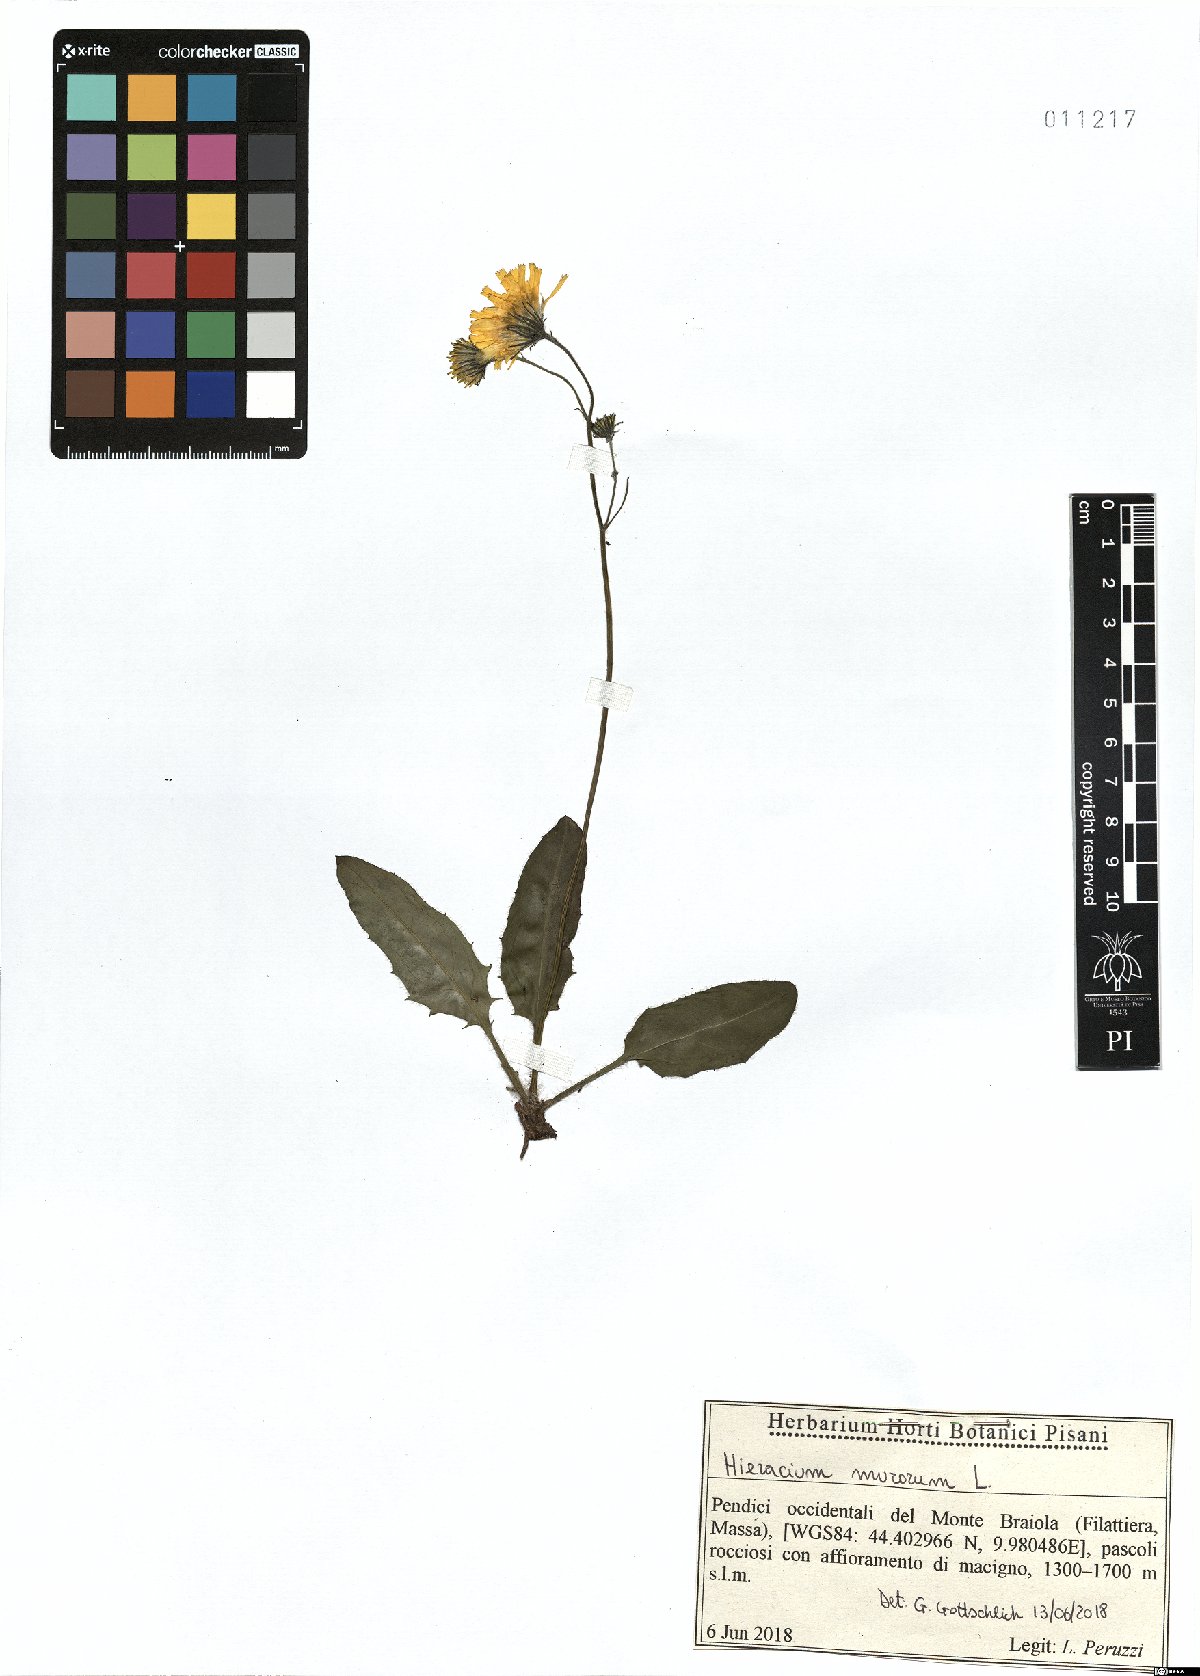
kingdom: Plantae
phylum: Tracheophyta
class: Magnoliopsida
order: Asterales
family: Asteraceae
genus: Hieracium
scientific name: Hieracium murorum
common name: Wall hawkweed
